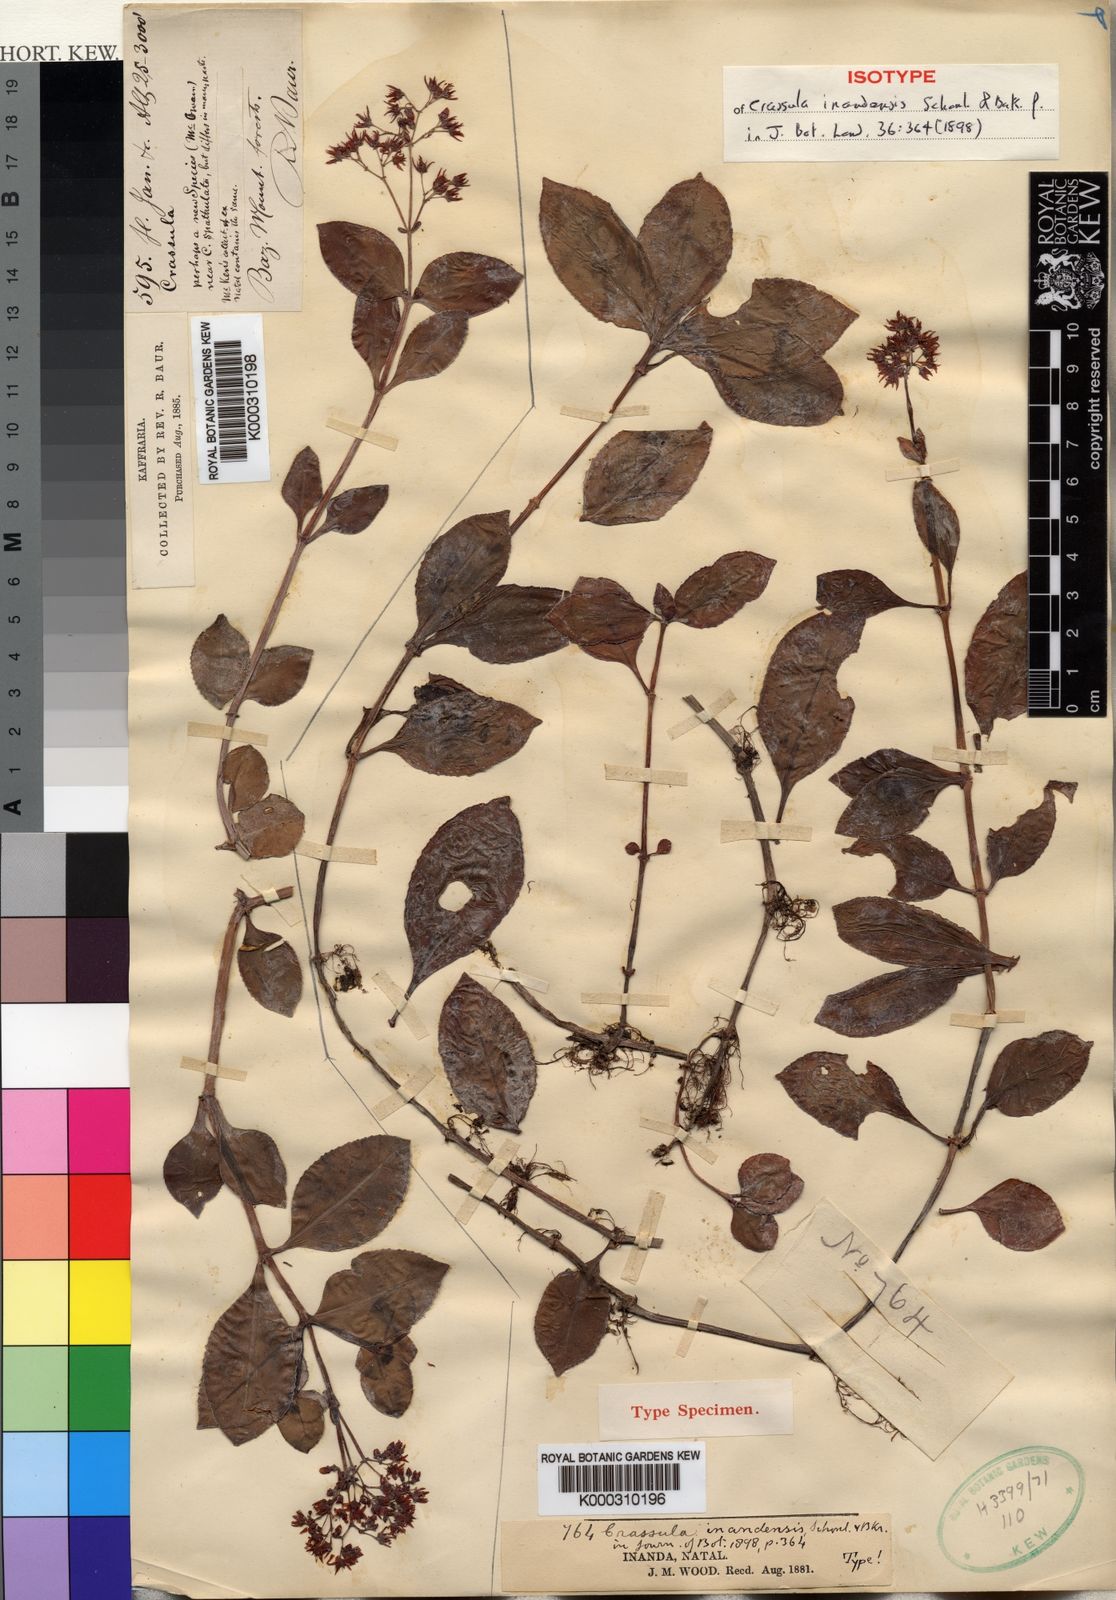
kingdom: Plantae
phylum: Tracheophyta
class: Magnoliopsida
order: Saxifragales
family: Crassulaceae
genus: Crassula
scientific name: Crassula
